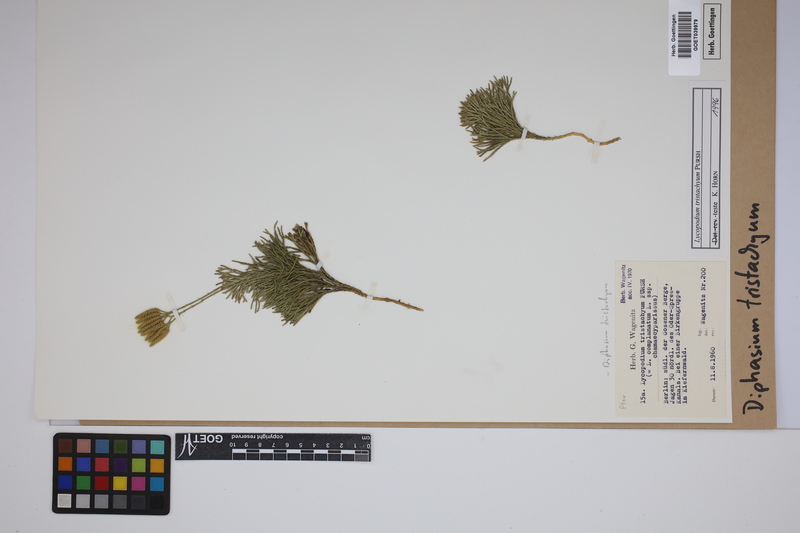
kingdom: Plantae
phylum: Tracheophyta
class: Lycopodiopsida
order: Lycopodiales
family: Lycopodiaceae
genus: Diphasiastrum
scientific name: Diphasiastrum tristachyum
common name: Blue ground-cedar
